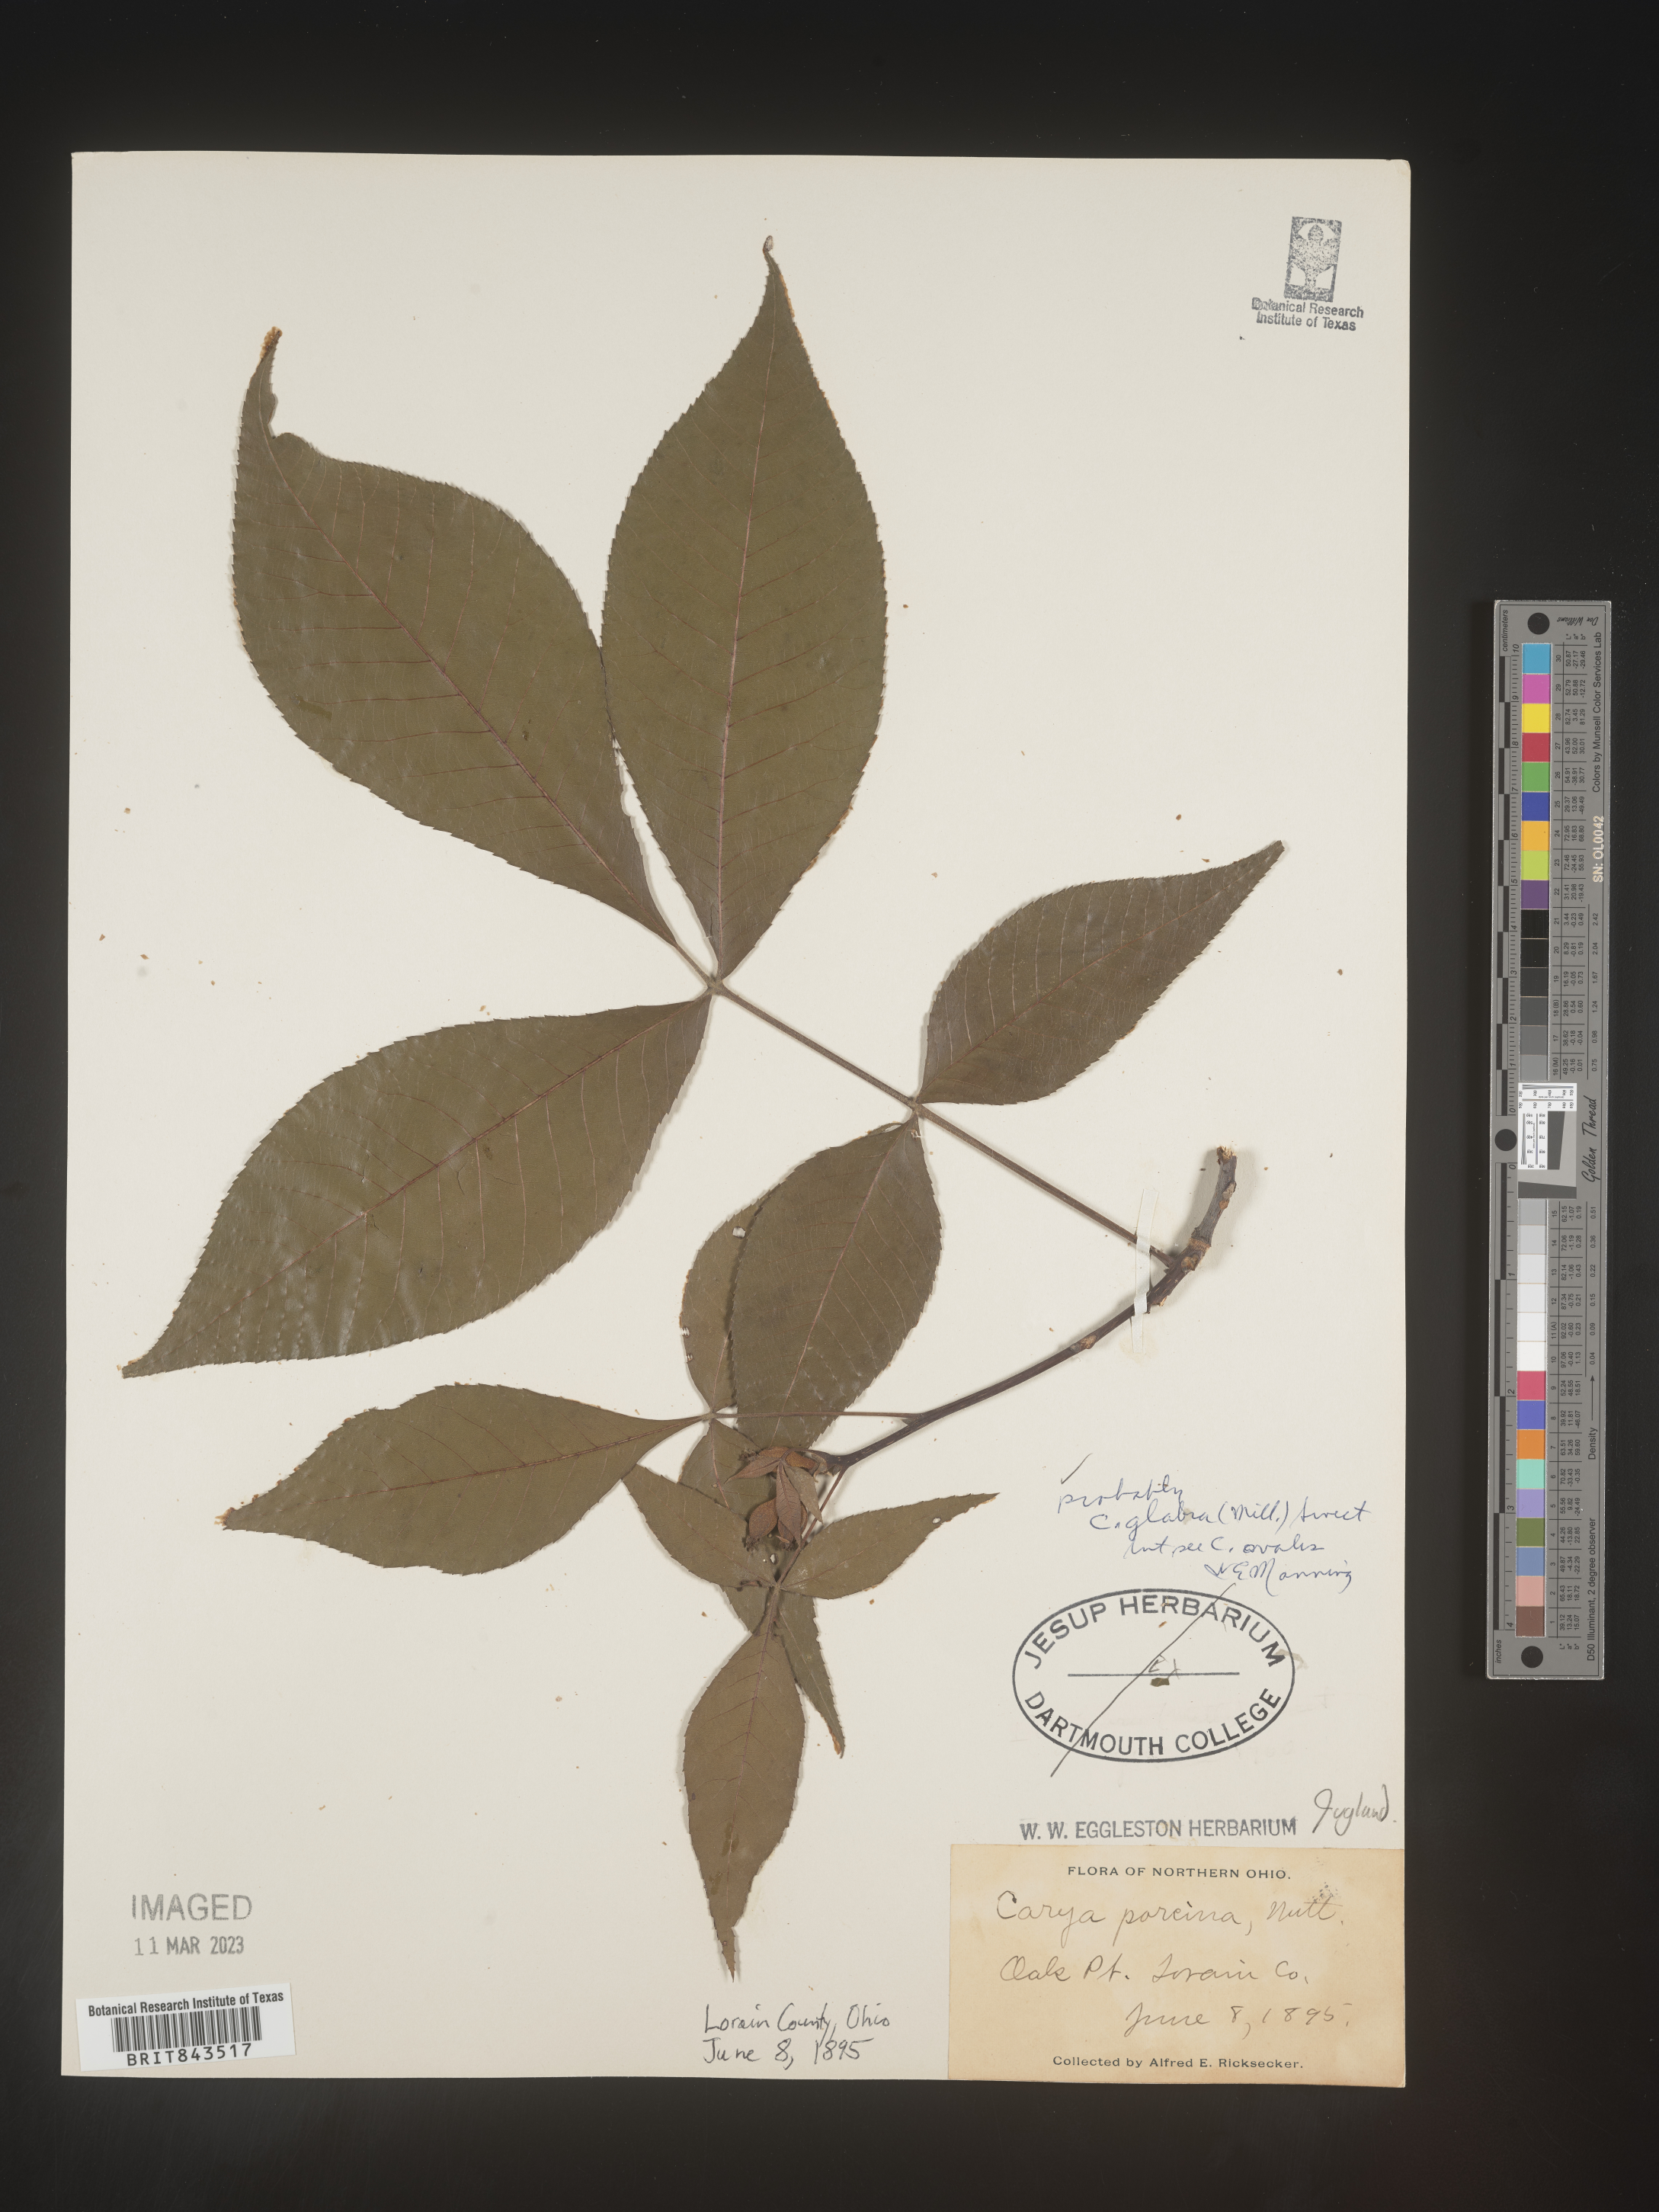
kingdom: Plantae
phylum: Tracheophyta
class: Magnoliopsida
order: Fagales
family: Juglandaceae
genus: Carya
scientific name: Carya glabra
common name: Pignut hickory
